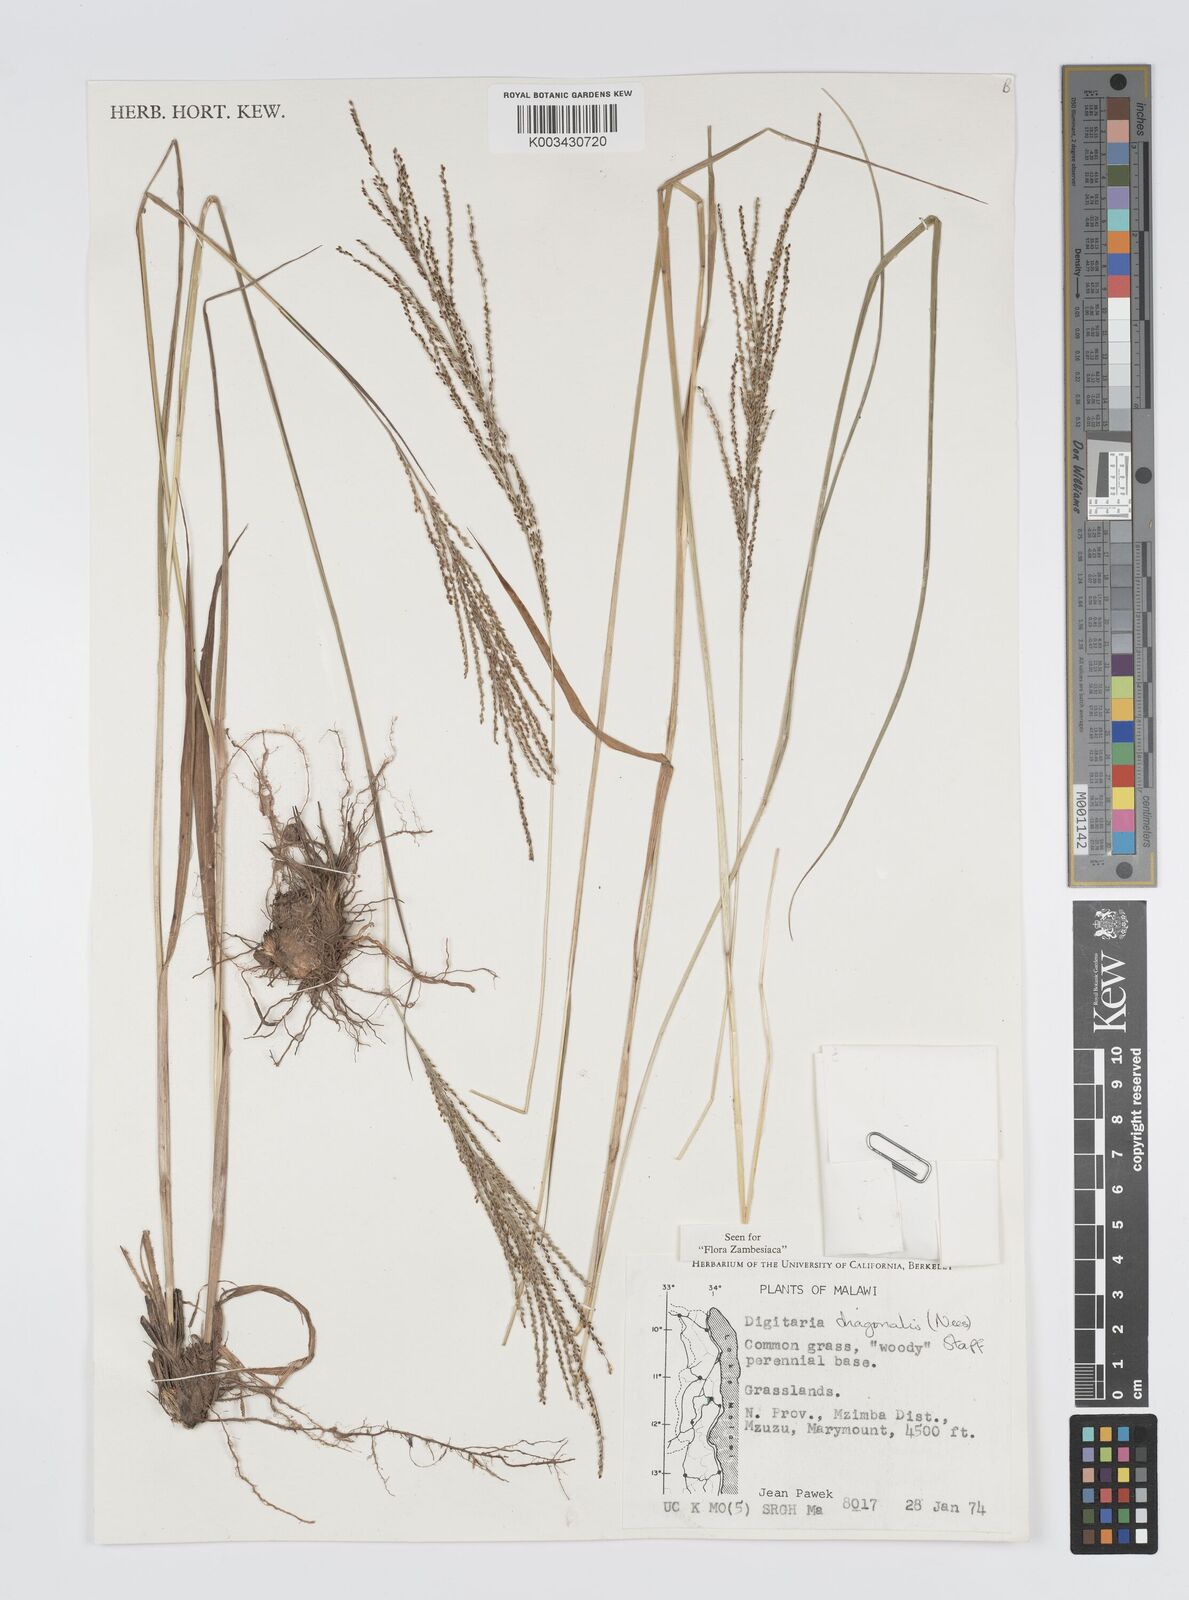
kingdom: Plantae
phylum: Tracheophyta
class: Liliopsida
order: Poales
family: Poaceae
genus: Digitaria
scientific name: Digitaria diagonalis
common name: Brown-seed finger grass
